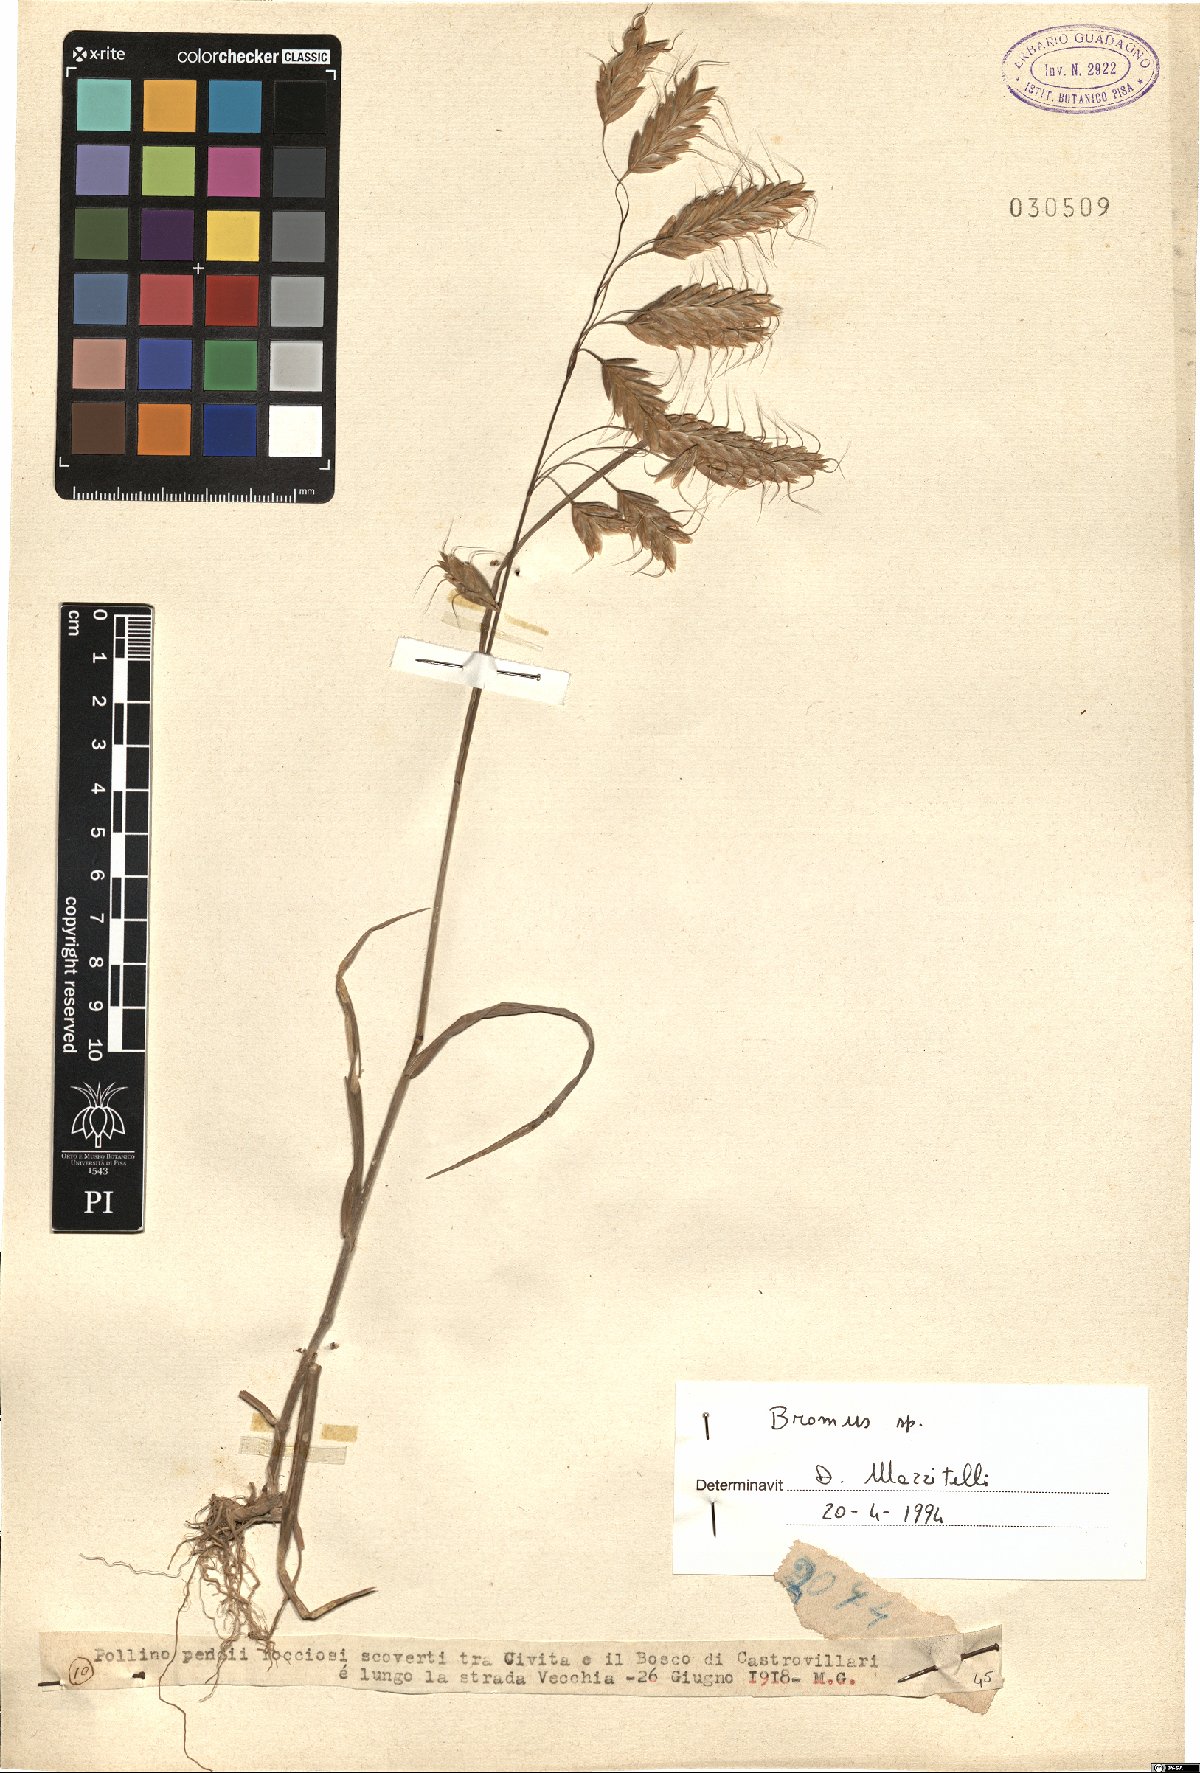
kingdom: Plantae
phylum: Tracheophyta
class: Liliopsida
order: Poales
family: Poaceae
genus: Bromus
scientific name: Bromus
